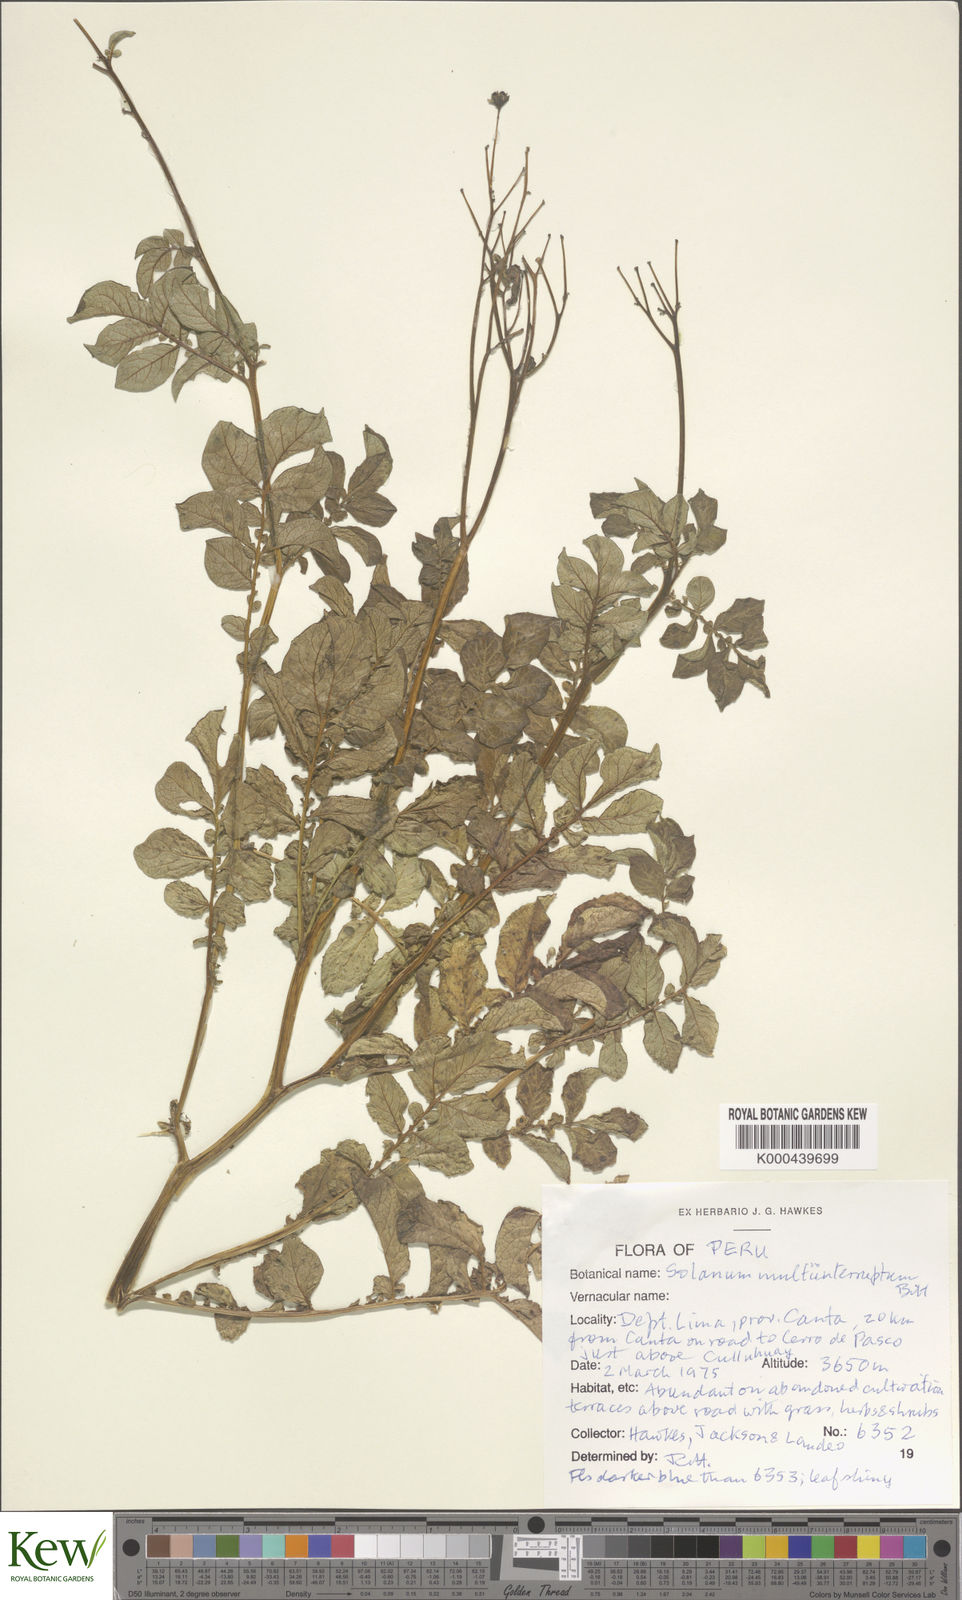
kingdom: Plantae
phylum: Tracheophyta
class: Magnoliopsida
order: Solanales
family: Solanaceae
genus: Solanum
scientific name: Solanum multiinterruptum
